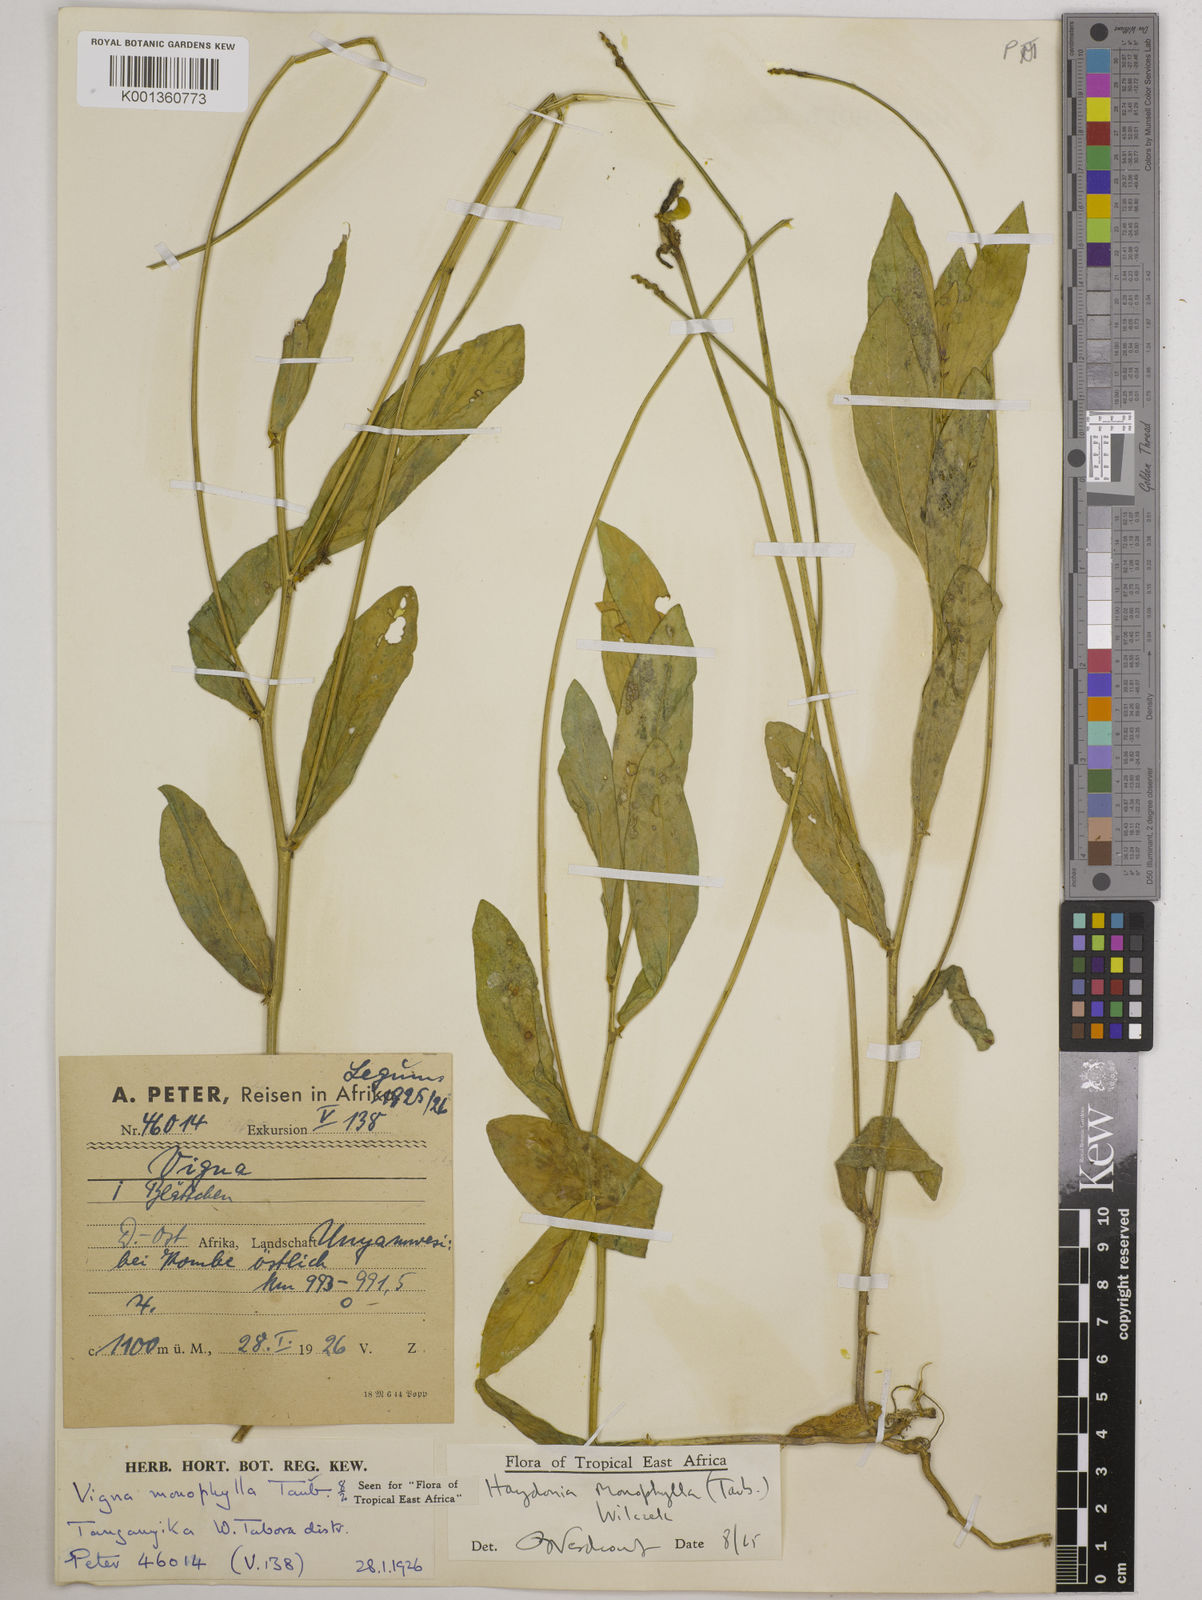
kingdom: Plantae
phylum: Tracheophyta
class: Magnoliopsida
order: Fabales
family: Fabaceae
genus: Vigna
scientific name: Vigna monophylla
